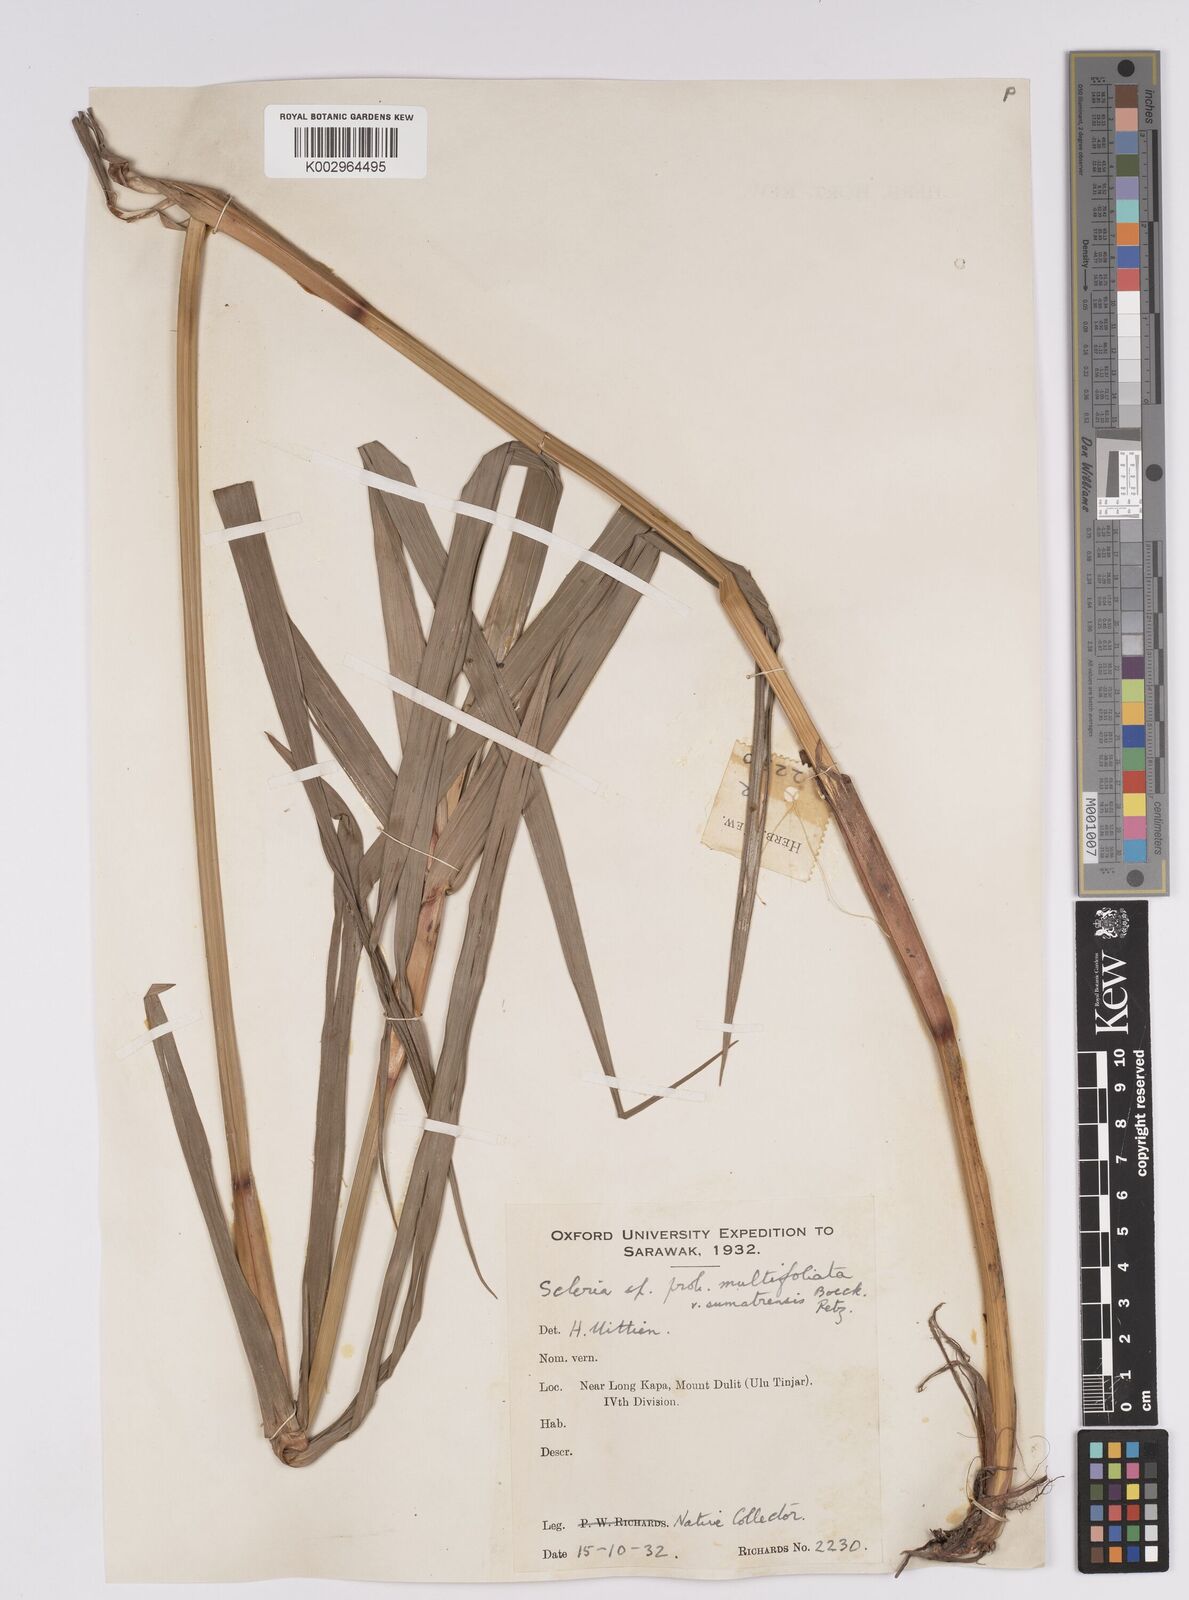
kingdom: Plantae
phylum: Tracheophyta
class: Liliopsida
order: Poales
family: Cyperaceae
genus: Scleria
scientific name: Scleria sumatrensis
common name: Sumatran scleria
